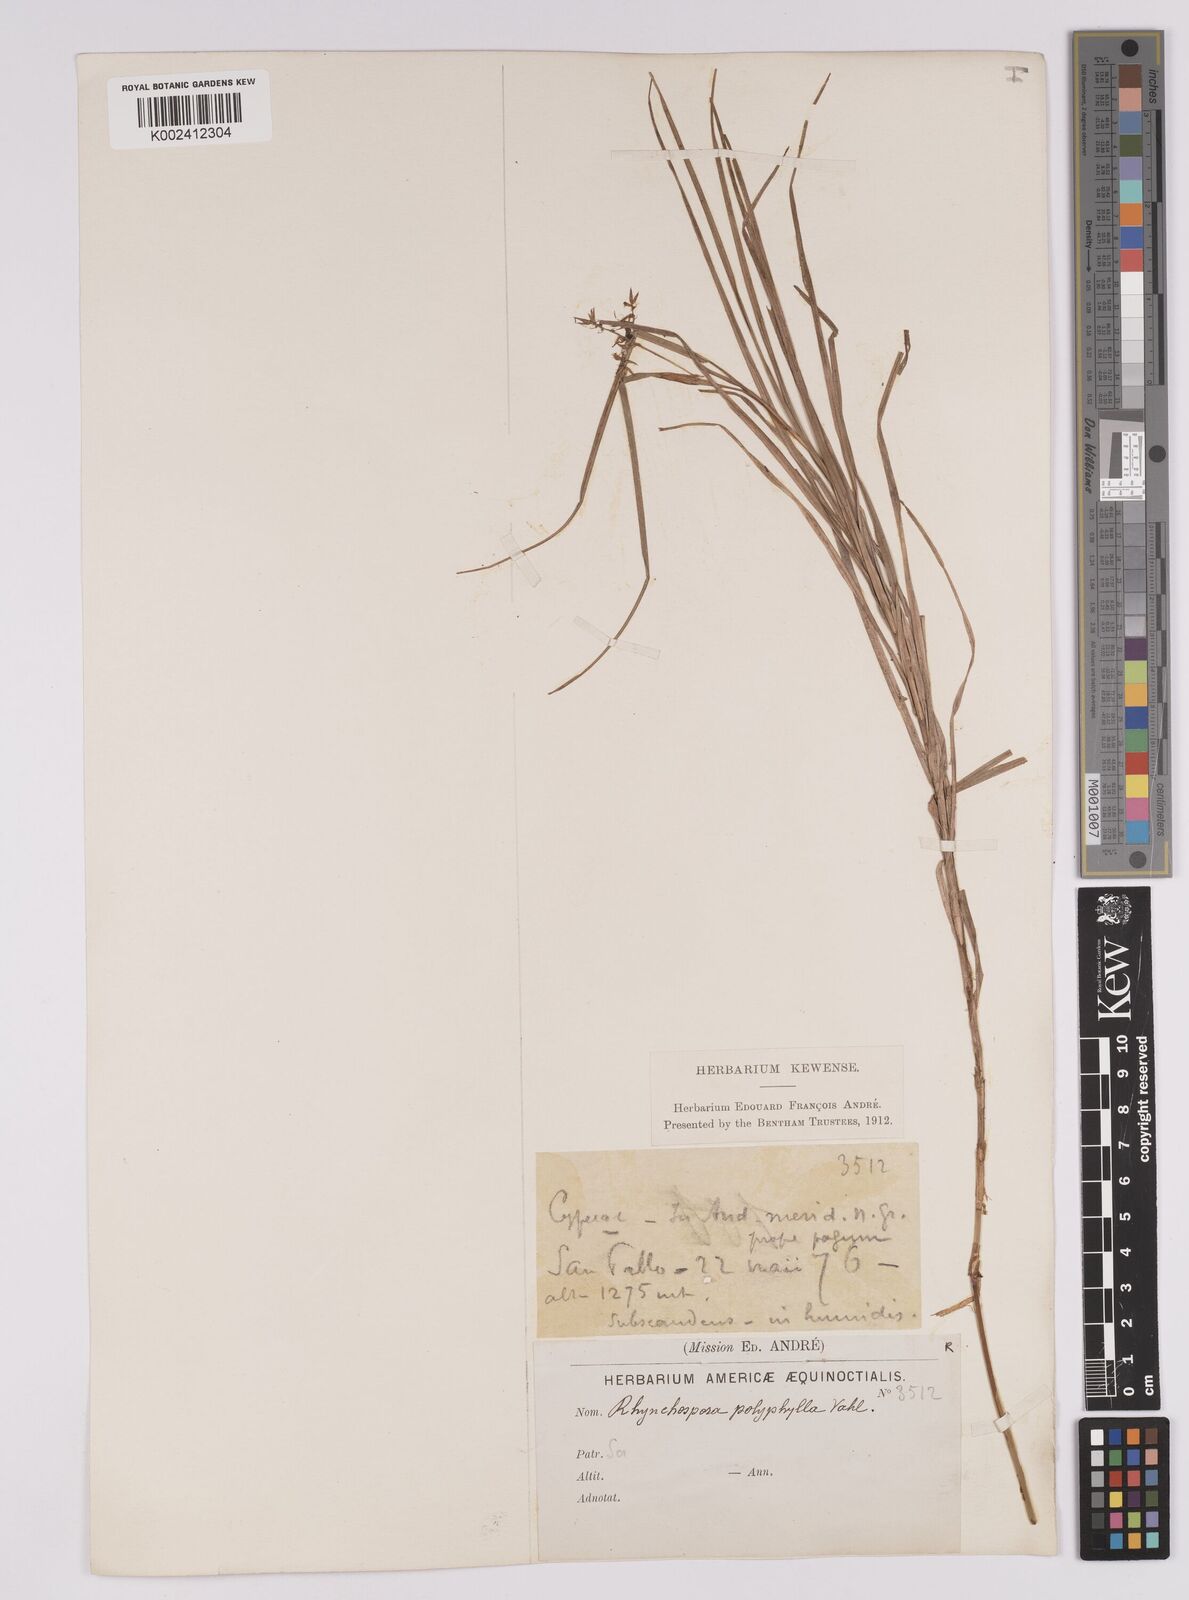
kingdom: Plantae
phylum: Tracheophyta
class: Liliopsida
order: Poales
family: Cyperaceae
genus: Rhynchospora
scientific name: Rhynchospora polyphylla
